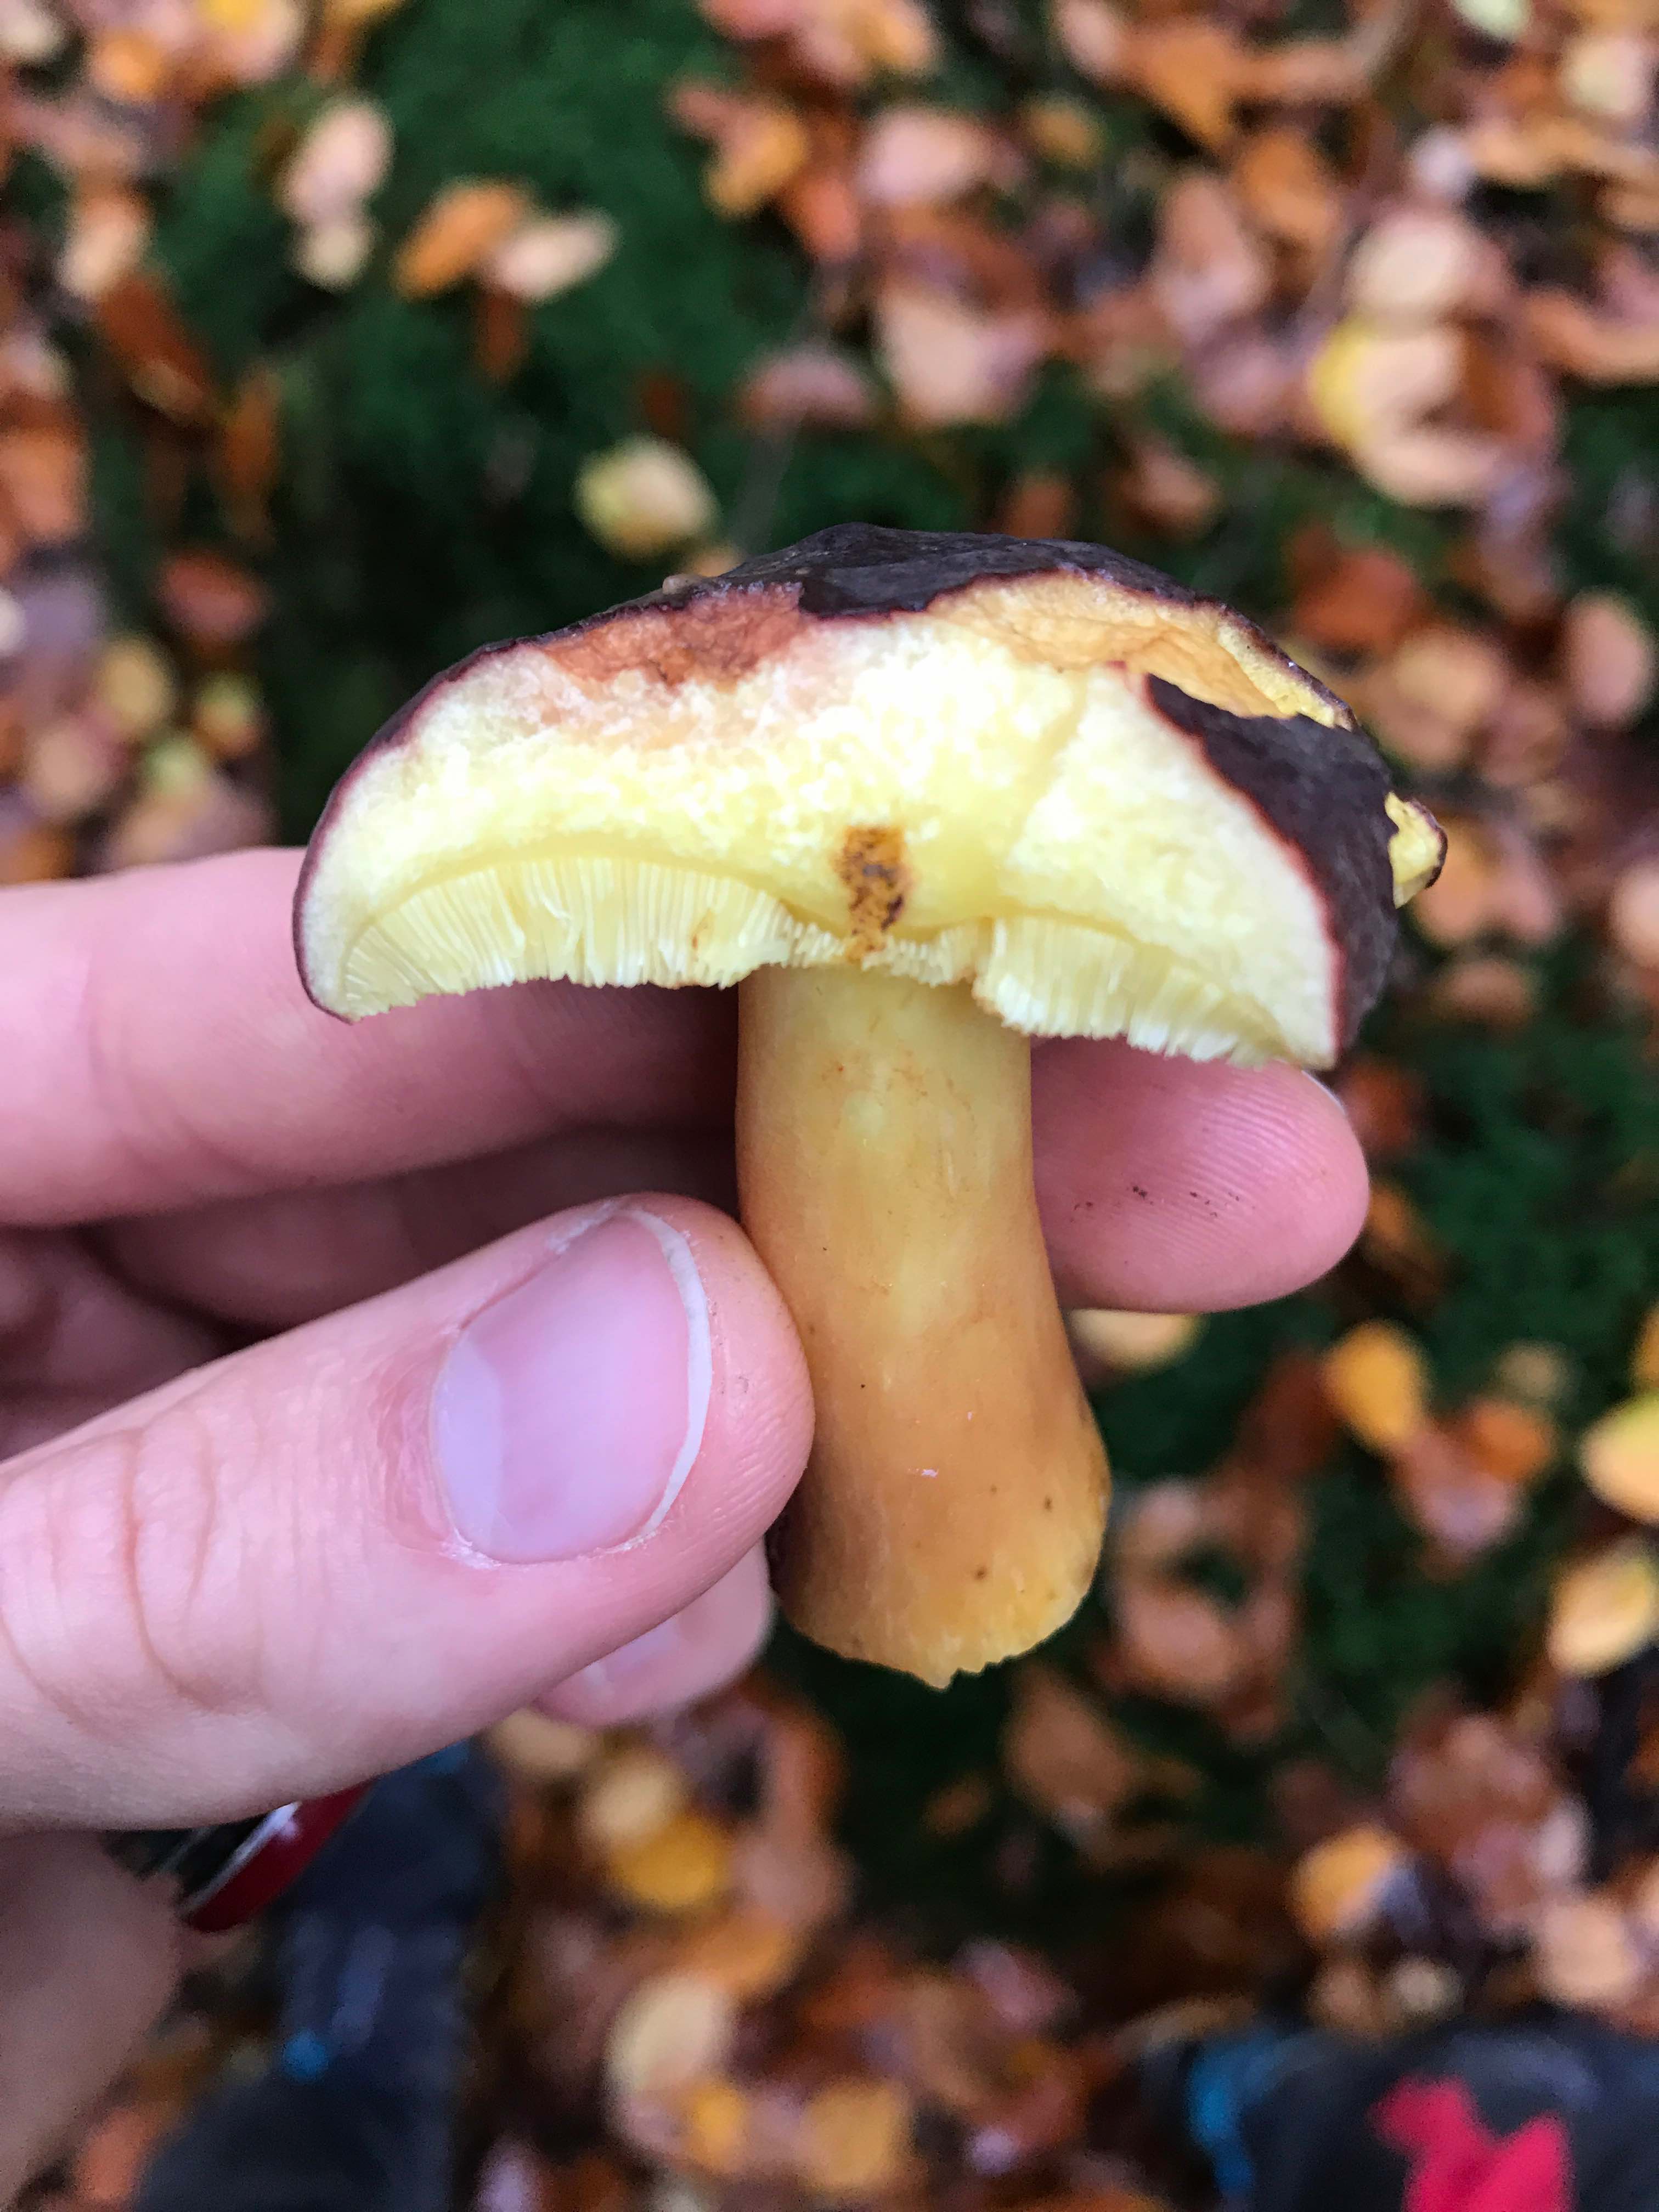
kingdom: Fungi
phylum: Basidiomycota
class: Agaricomycetes
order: Boletales
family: Boletaceae
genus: Xerocomellus
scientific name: Xerocomellus pruinatus
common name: dugget rørhat
